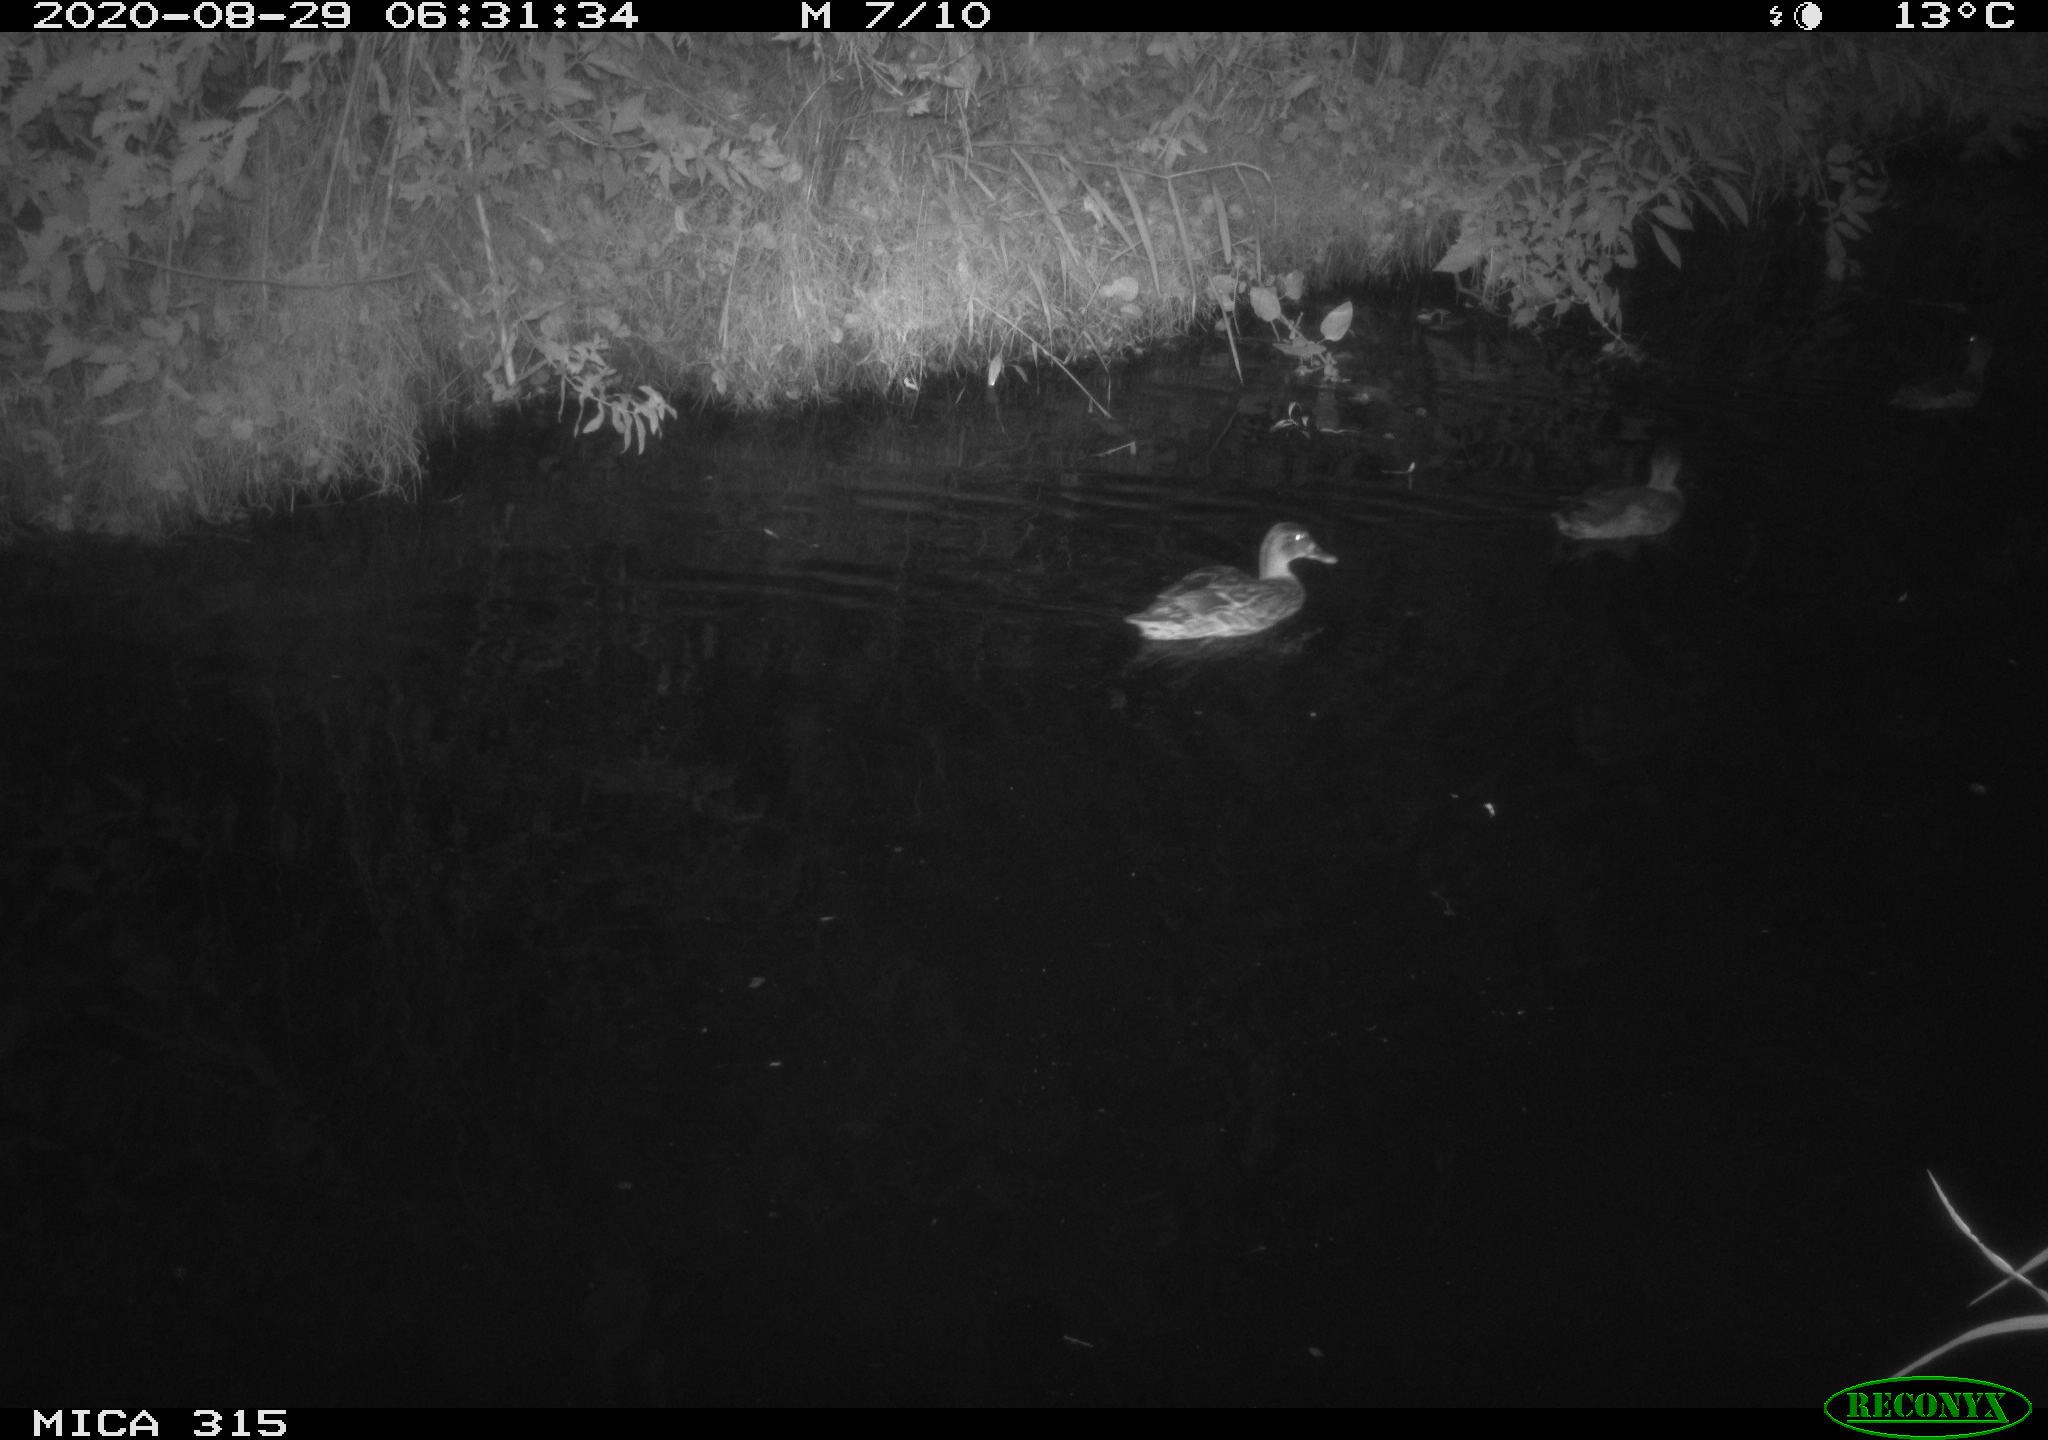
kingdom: Animalia
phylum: Chordata
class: Aves
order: Anseriformes
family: Anatidae
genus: Anas
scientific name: Anas platyrhynchos
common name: Mallard
